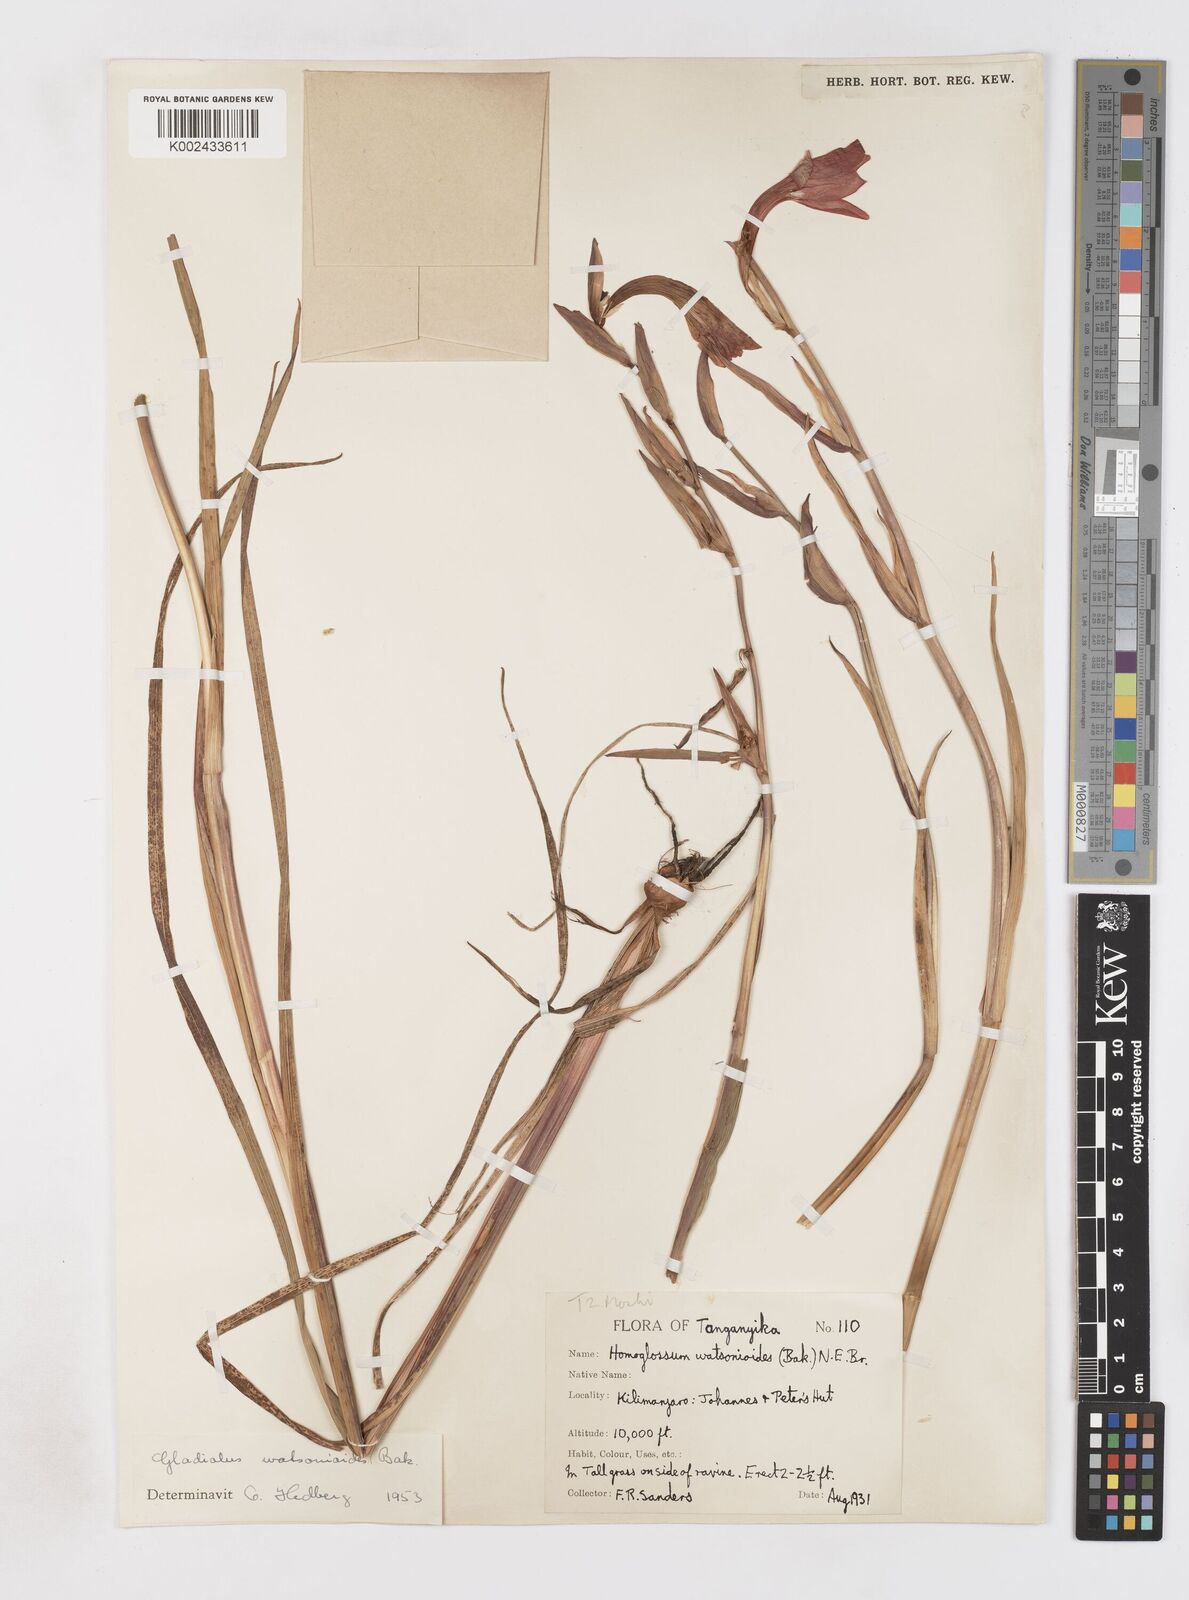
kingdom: Plantae
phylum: Tracheophyta
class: Liliopsida
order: Asparagales
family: Iridaceae
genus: Gladiolus
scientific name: Gladiolus watsonioides
